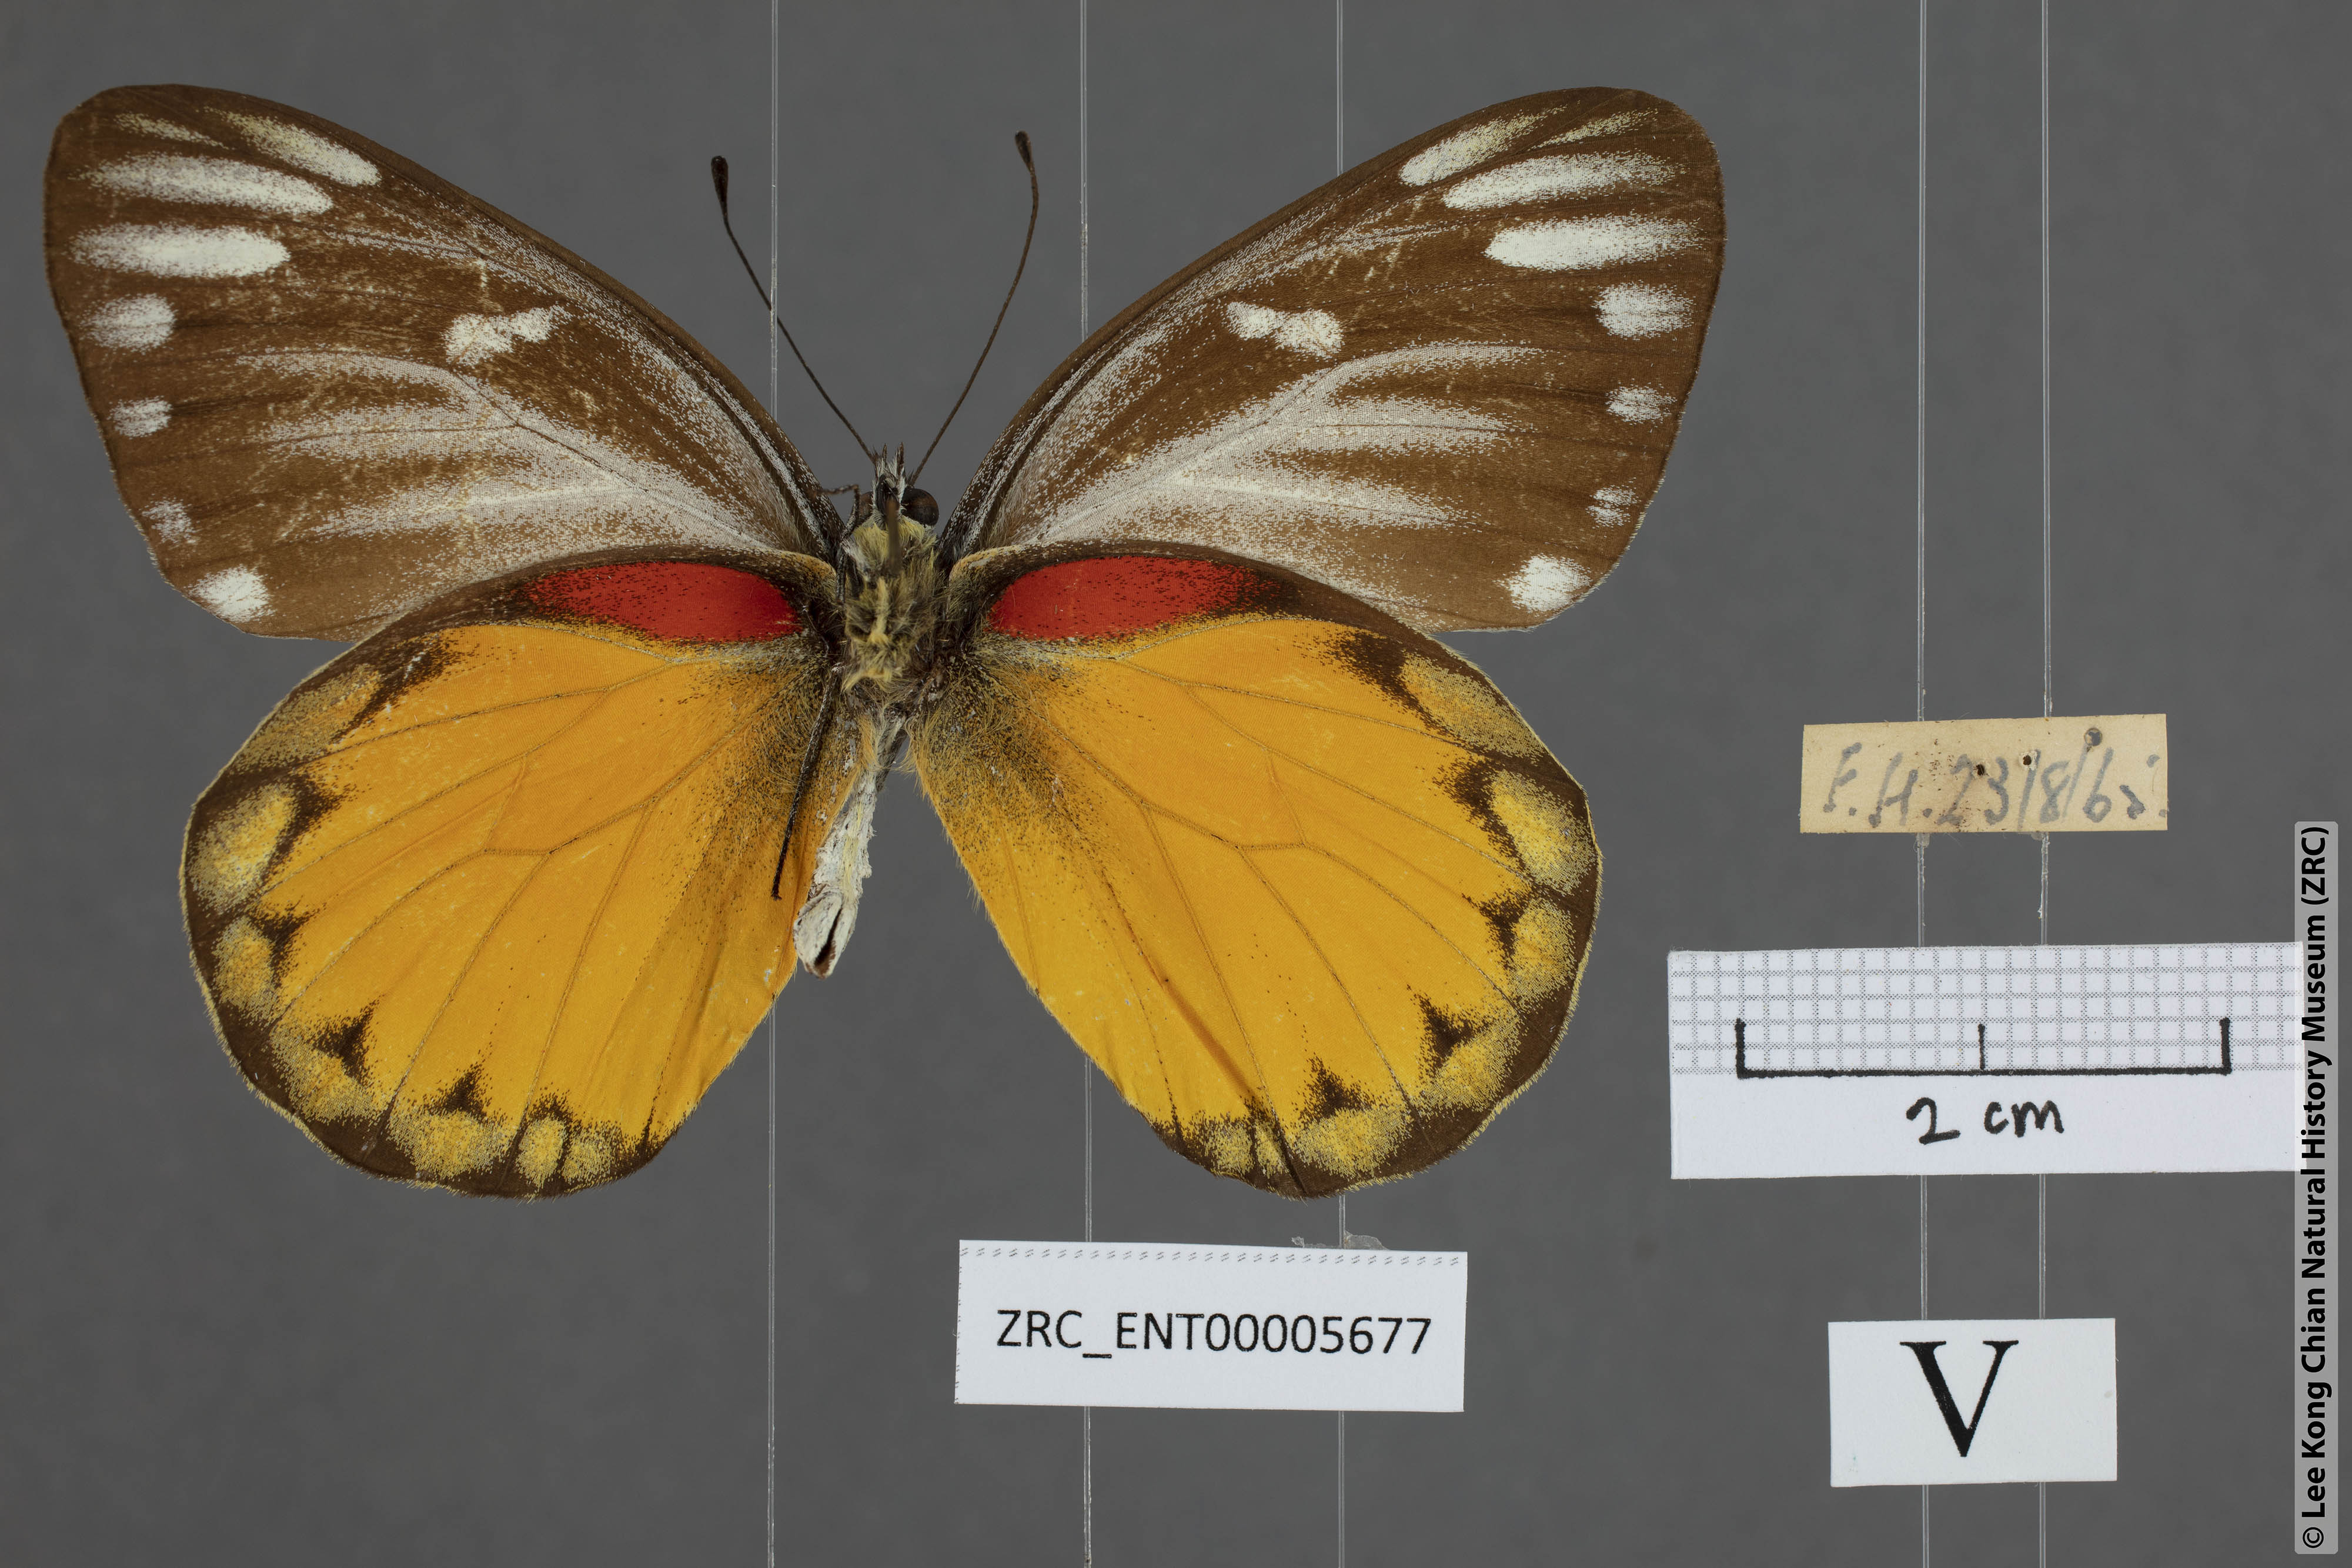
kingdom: Animalia
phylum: Arthropoda
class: Insecta
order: Lepidoptera
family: Pieridae
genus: Delias
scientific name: Delias descombesi
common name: Red-spot jezebel
